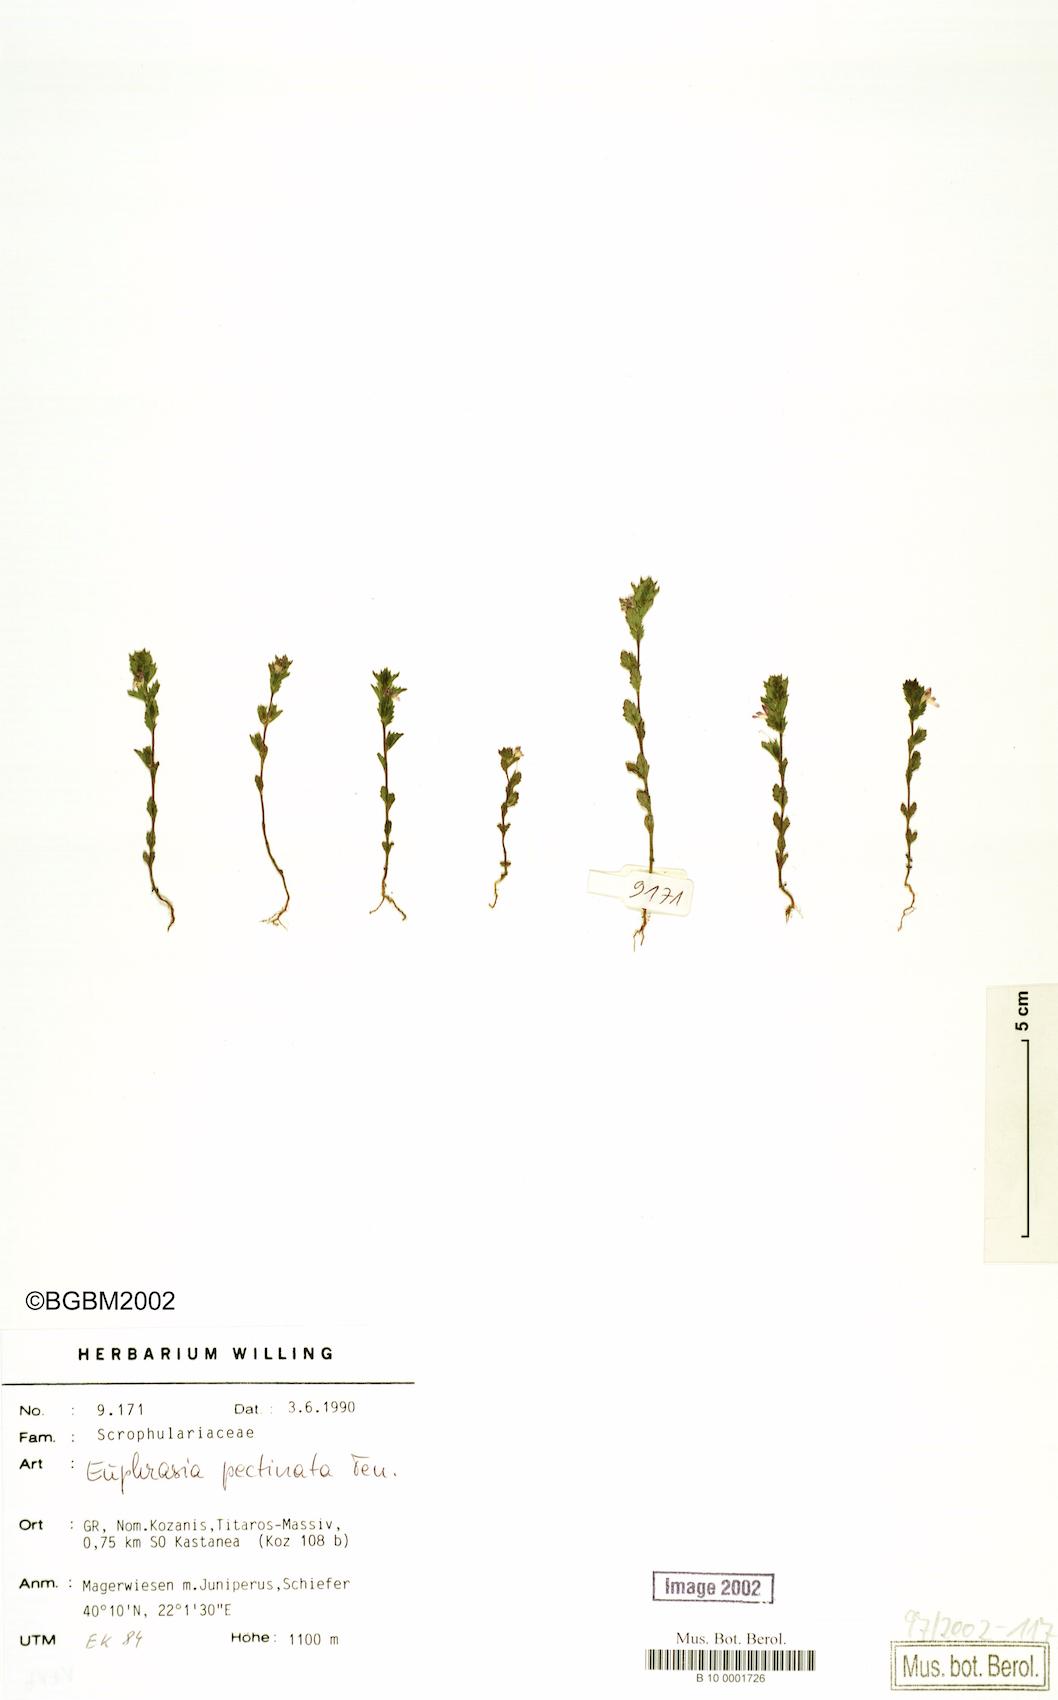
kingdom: Plantae
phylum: Tracheophyta
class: Magnoliopsida
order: Lamiales
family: Orobanchaceae
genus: Euphrasia
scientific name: Euphrasia pectinata
